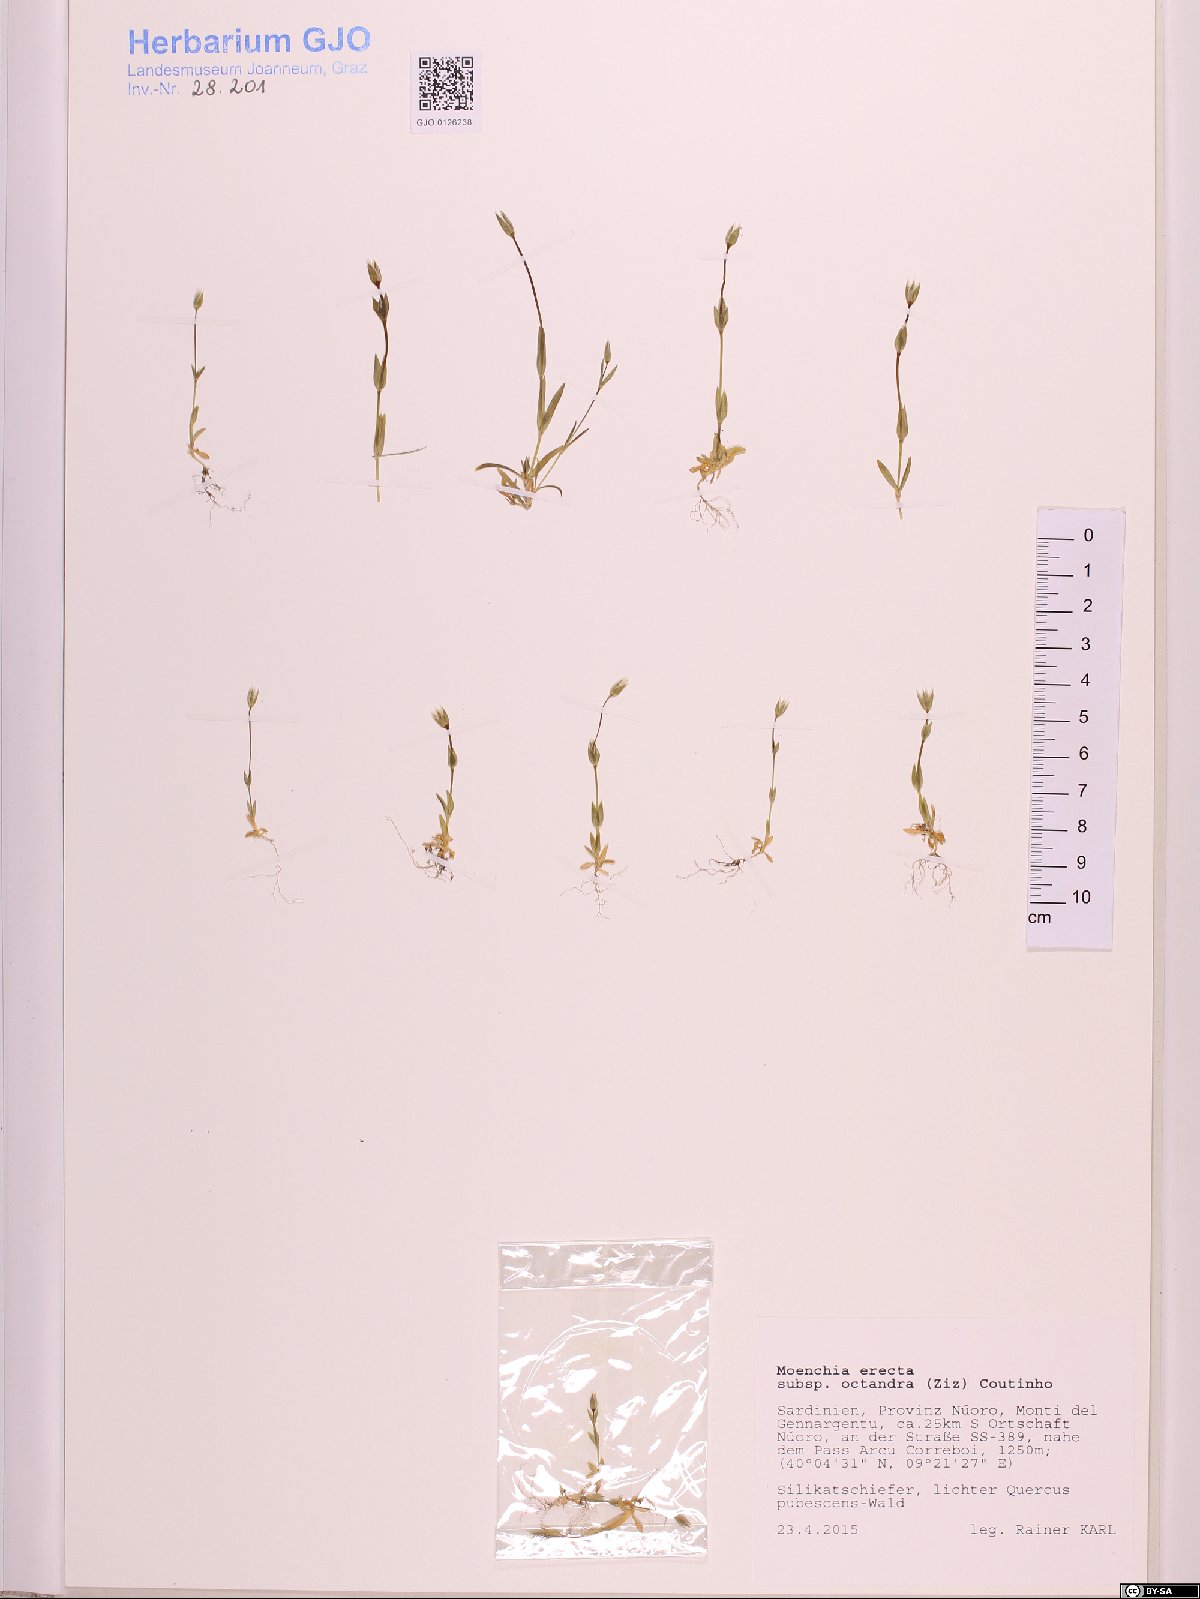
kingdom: Plantae
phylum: Tracheophyta
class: Magnoliopsida
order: Caryophyllales
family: Caryophyllaceae
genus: Moenchia
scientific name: Moenchia erecta
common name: Upright chickweed
